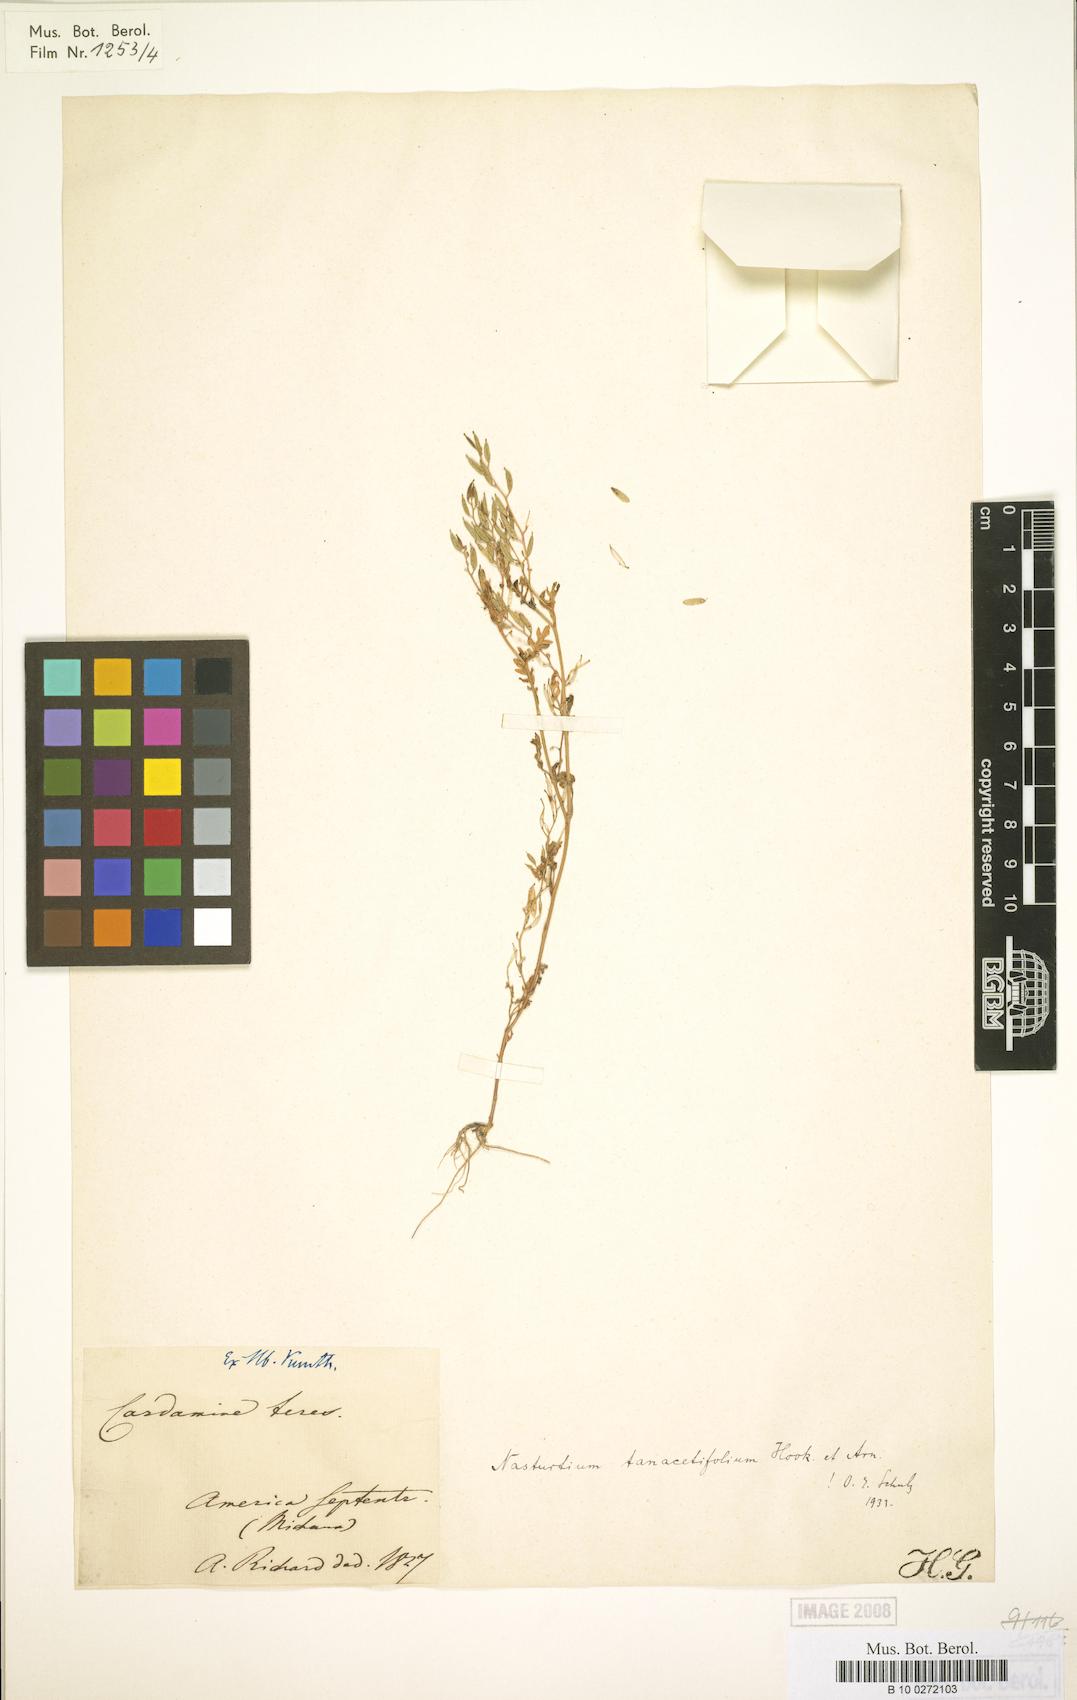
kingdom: Plantae
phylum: Tracheophyta
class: Magnoliopsida
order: Brassicales
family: Brassicaceae
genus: Rorippa
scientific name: Rorippa teres
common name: Southern marsh yellowcress
